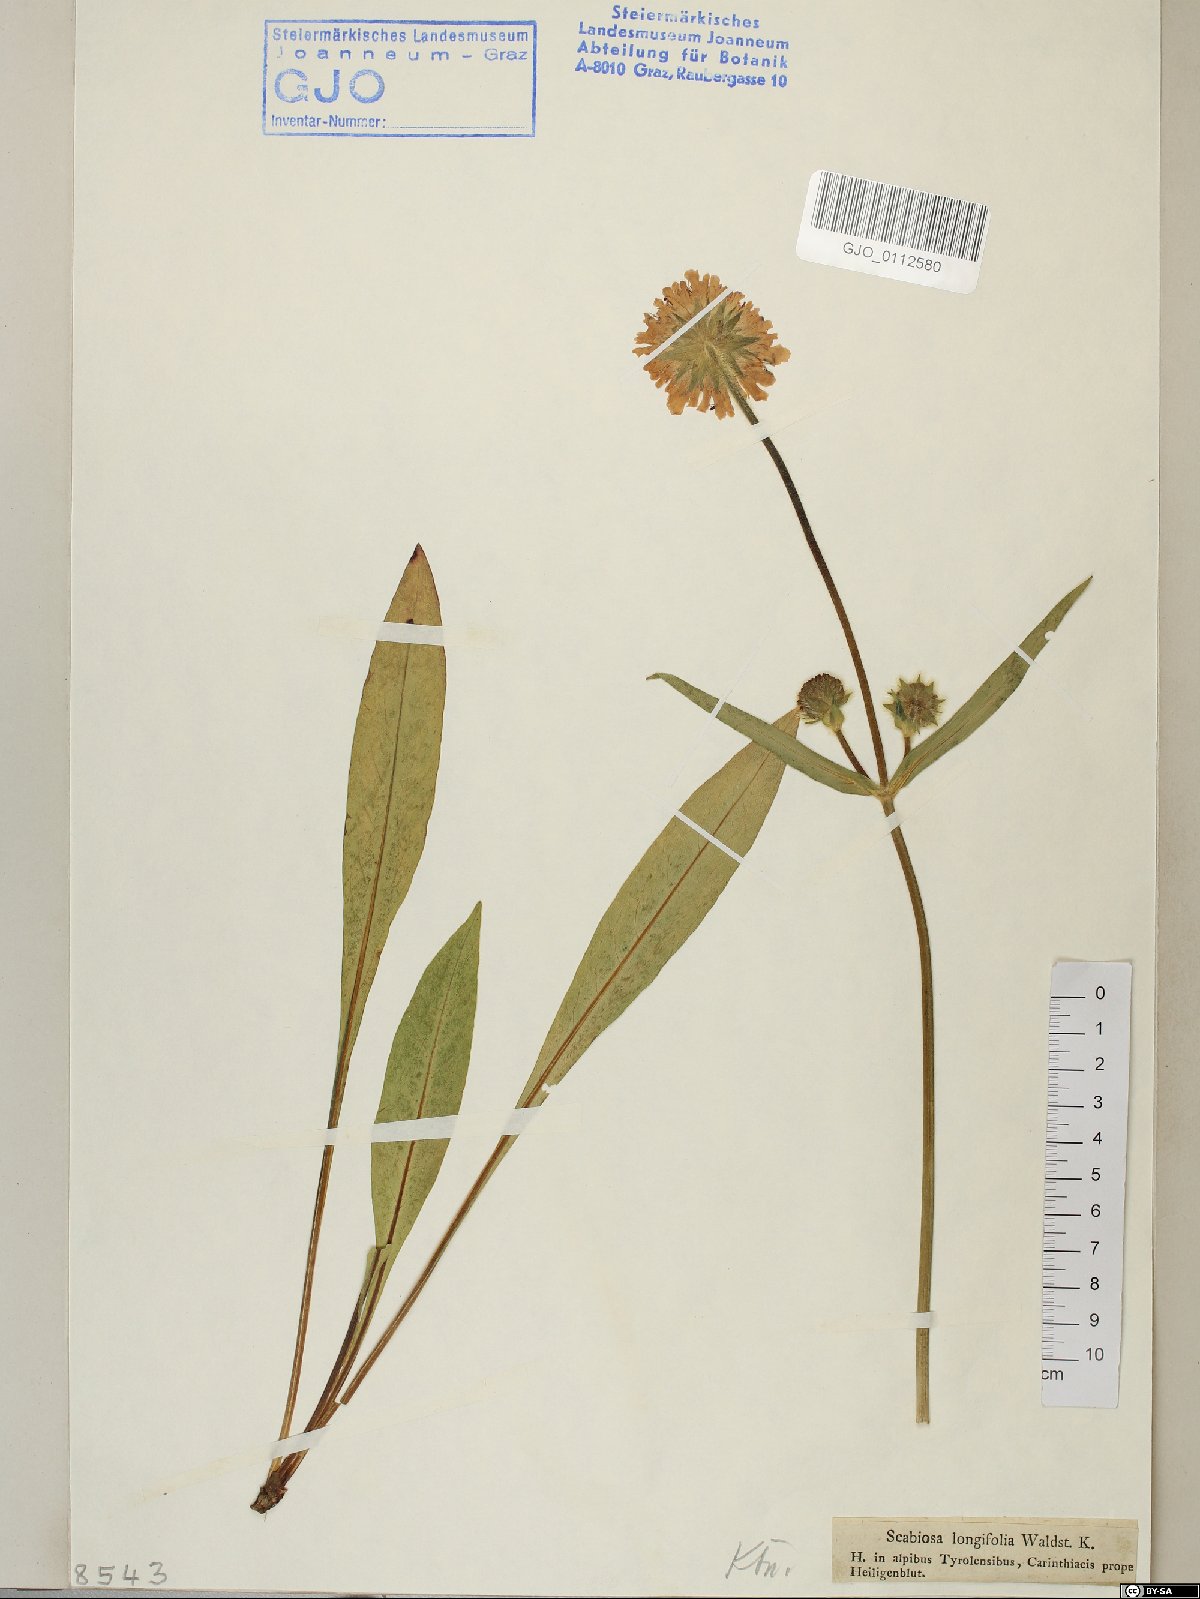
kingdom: Plantae
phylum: Tracheophyta
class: Magnoliopsida
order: Dipsacales
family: Caprifoliaceae
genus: Knautia
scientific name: Knautia longifolia
